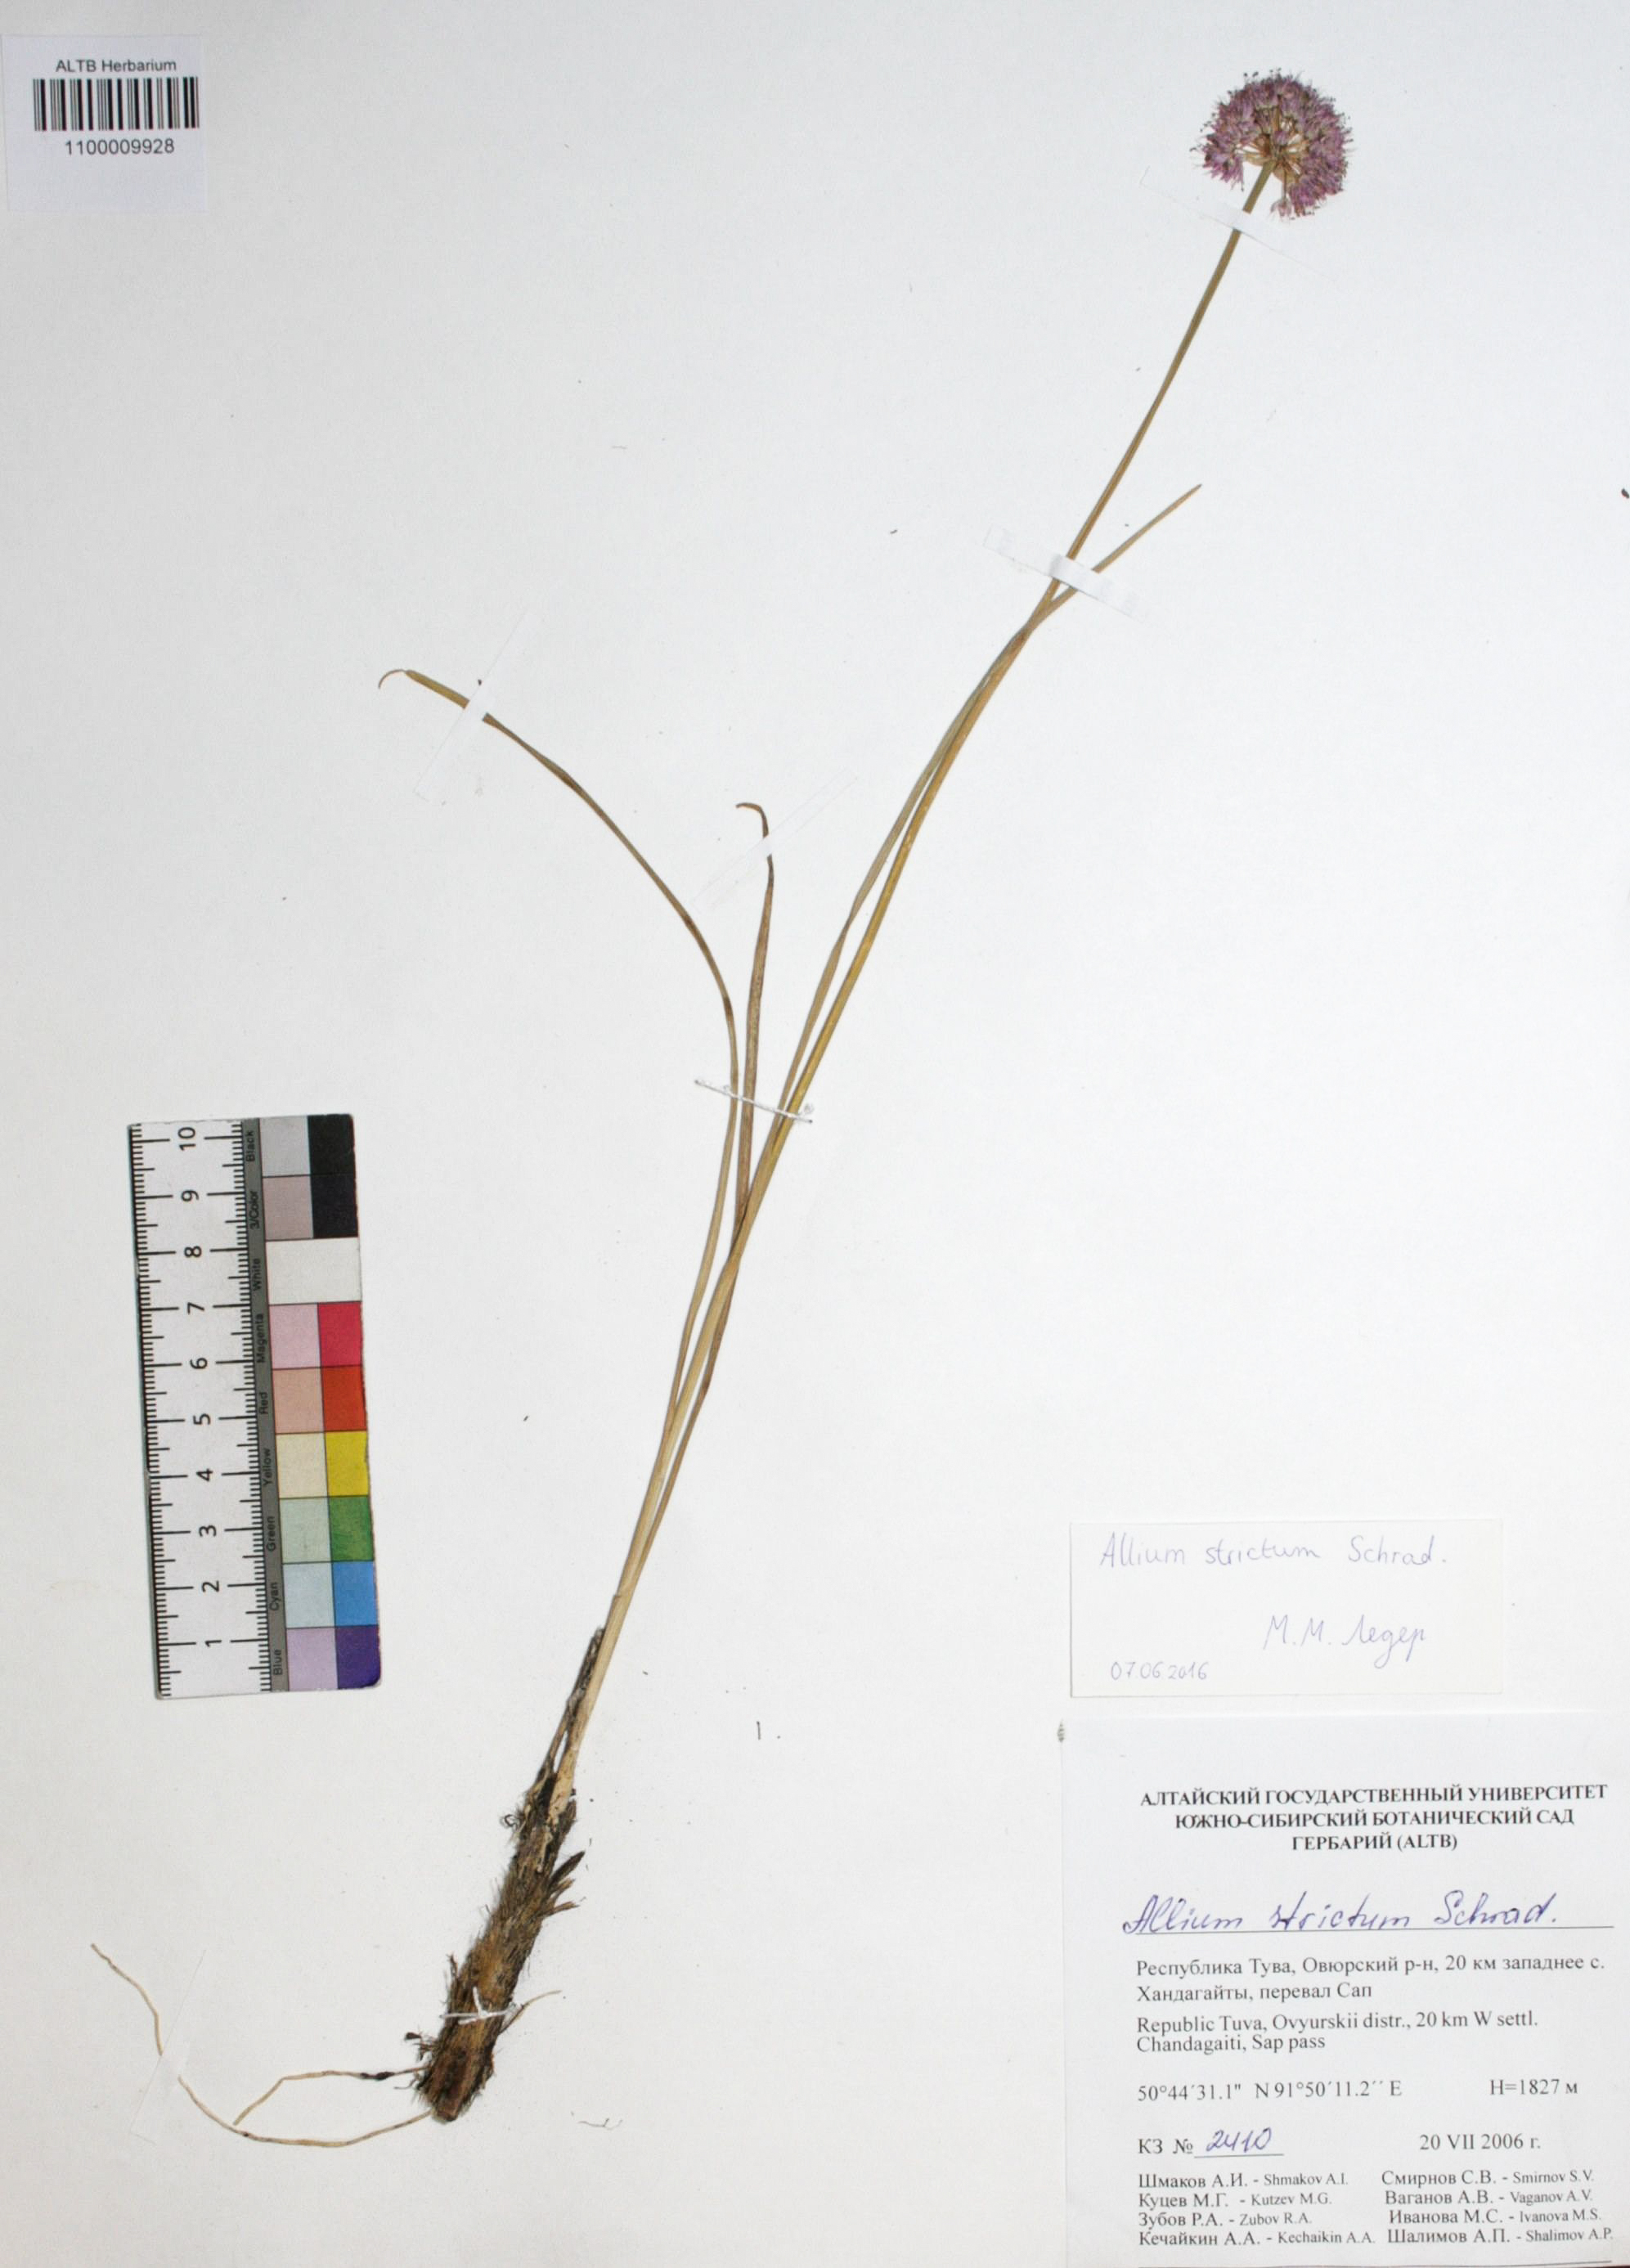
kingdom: Plantae
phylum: Tracheophyta
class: Liliopsida
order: Asparagales
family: Amaryllidaceae
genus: Allium
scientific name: Allium strictum
